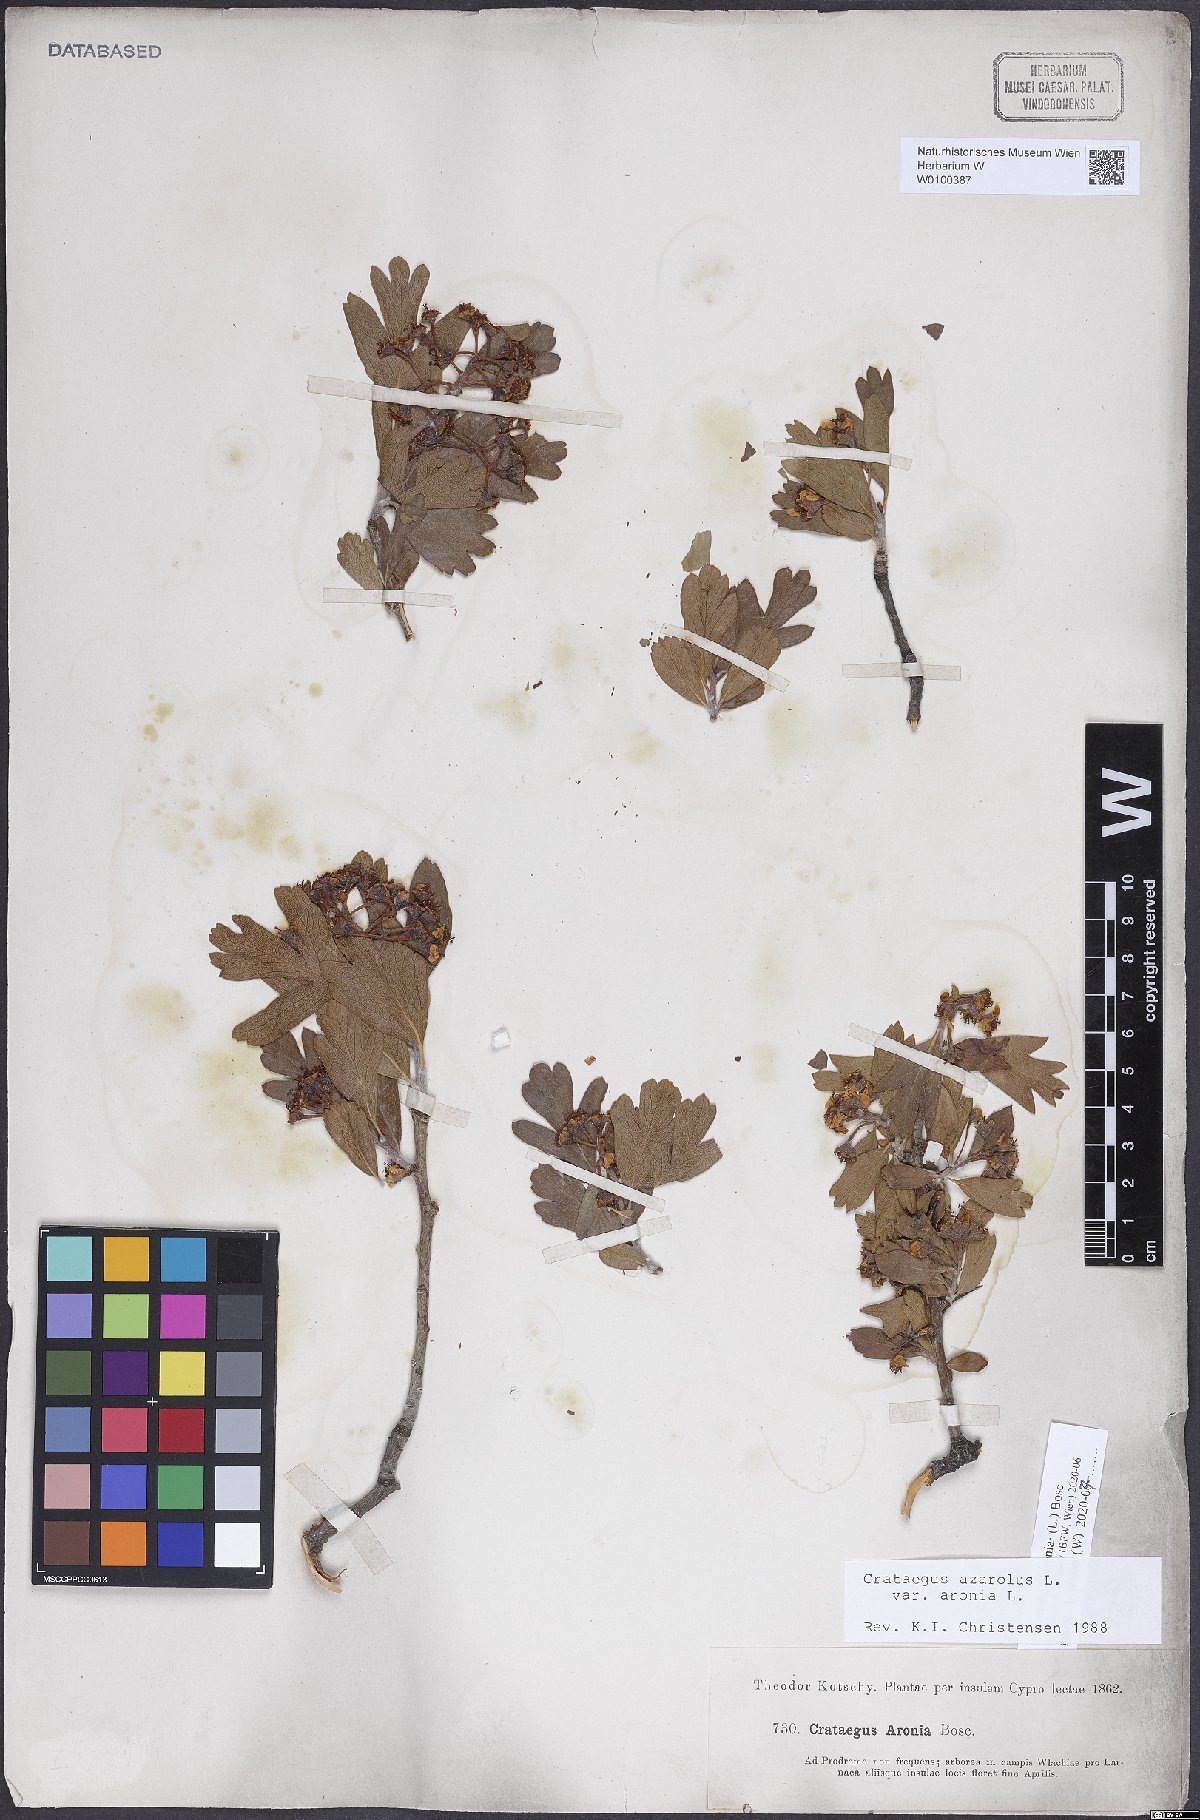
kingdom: Plantae
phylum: Tracheophyta
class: Magnoliopsida
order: Rosales
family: Rosaceae
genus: Crataegus
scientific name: Crataegus azarolus
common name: Azarole
